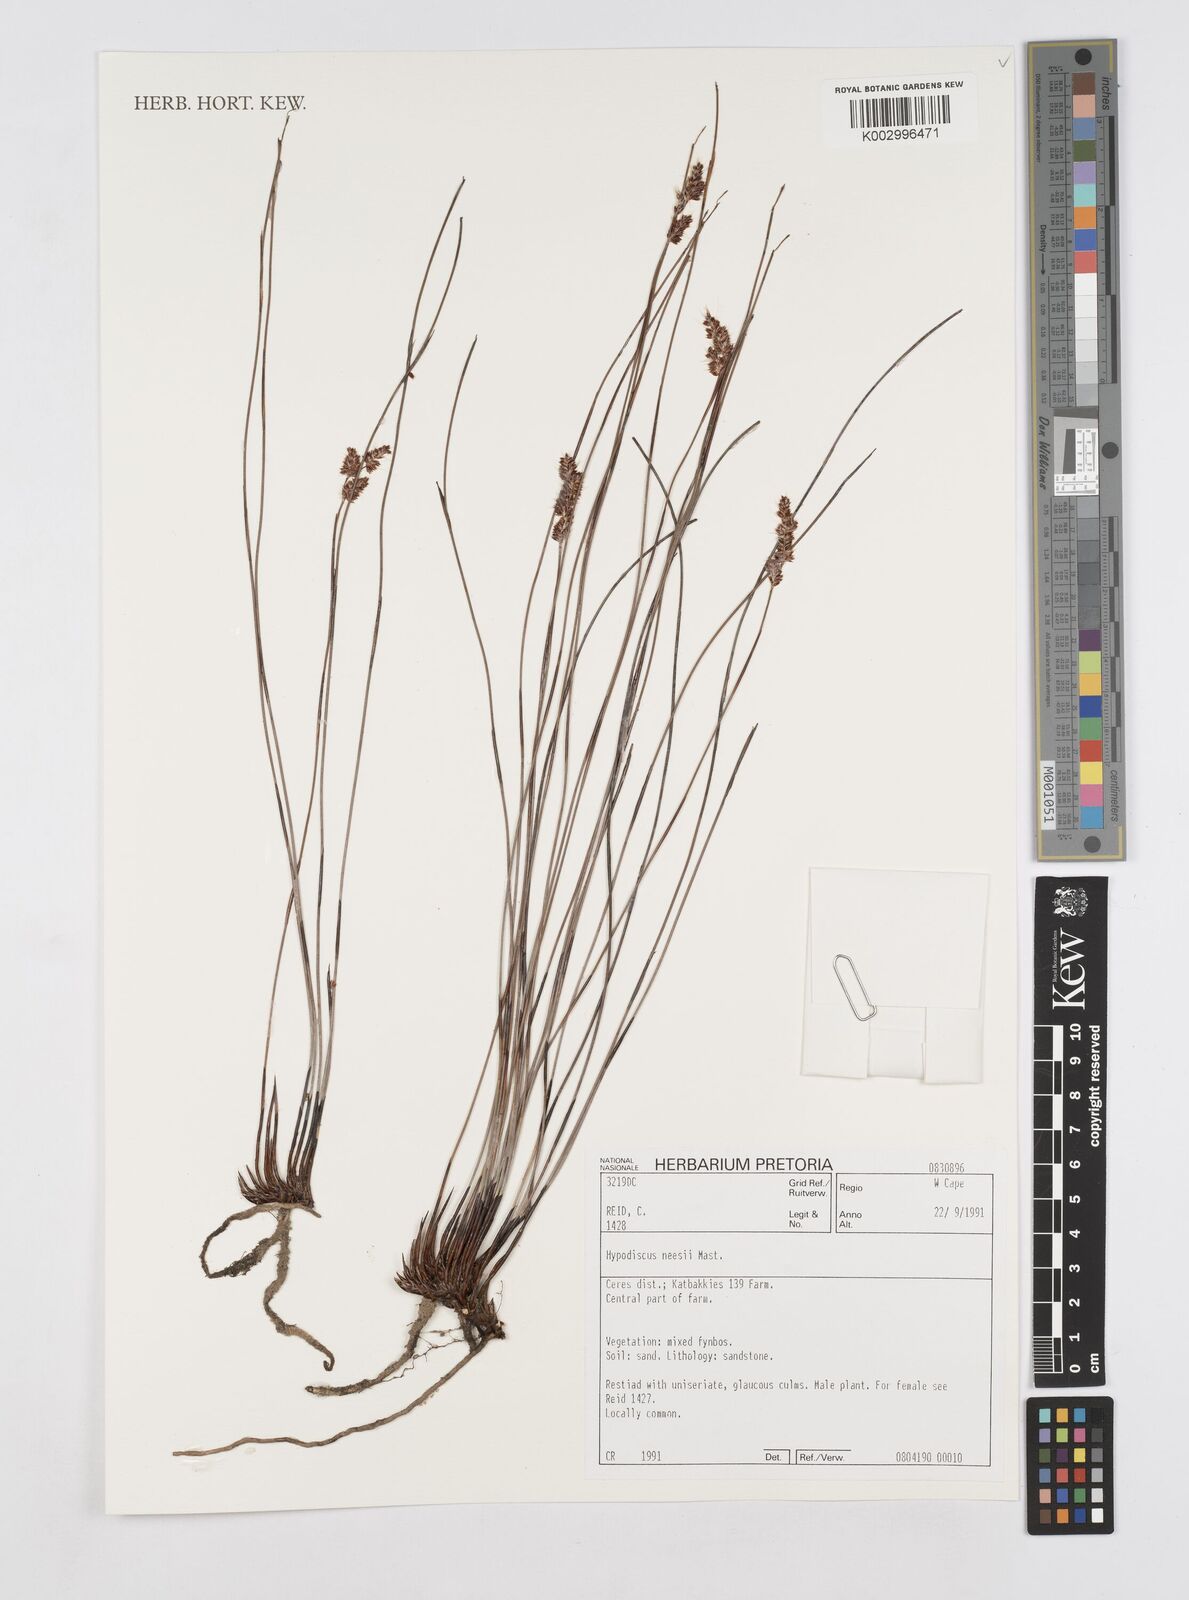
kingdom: Plantae
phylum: Tracheophyta
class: Liliopsida
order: Poales
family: Restionaceae
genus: Hypodiscus
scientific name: Hypodiscus neesii
